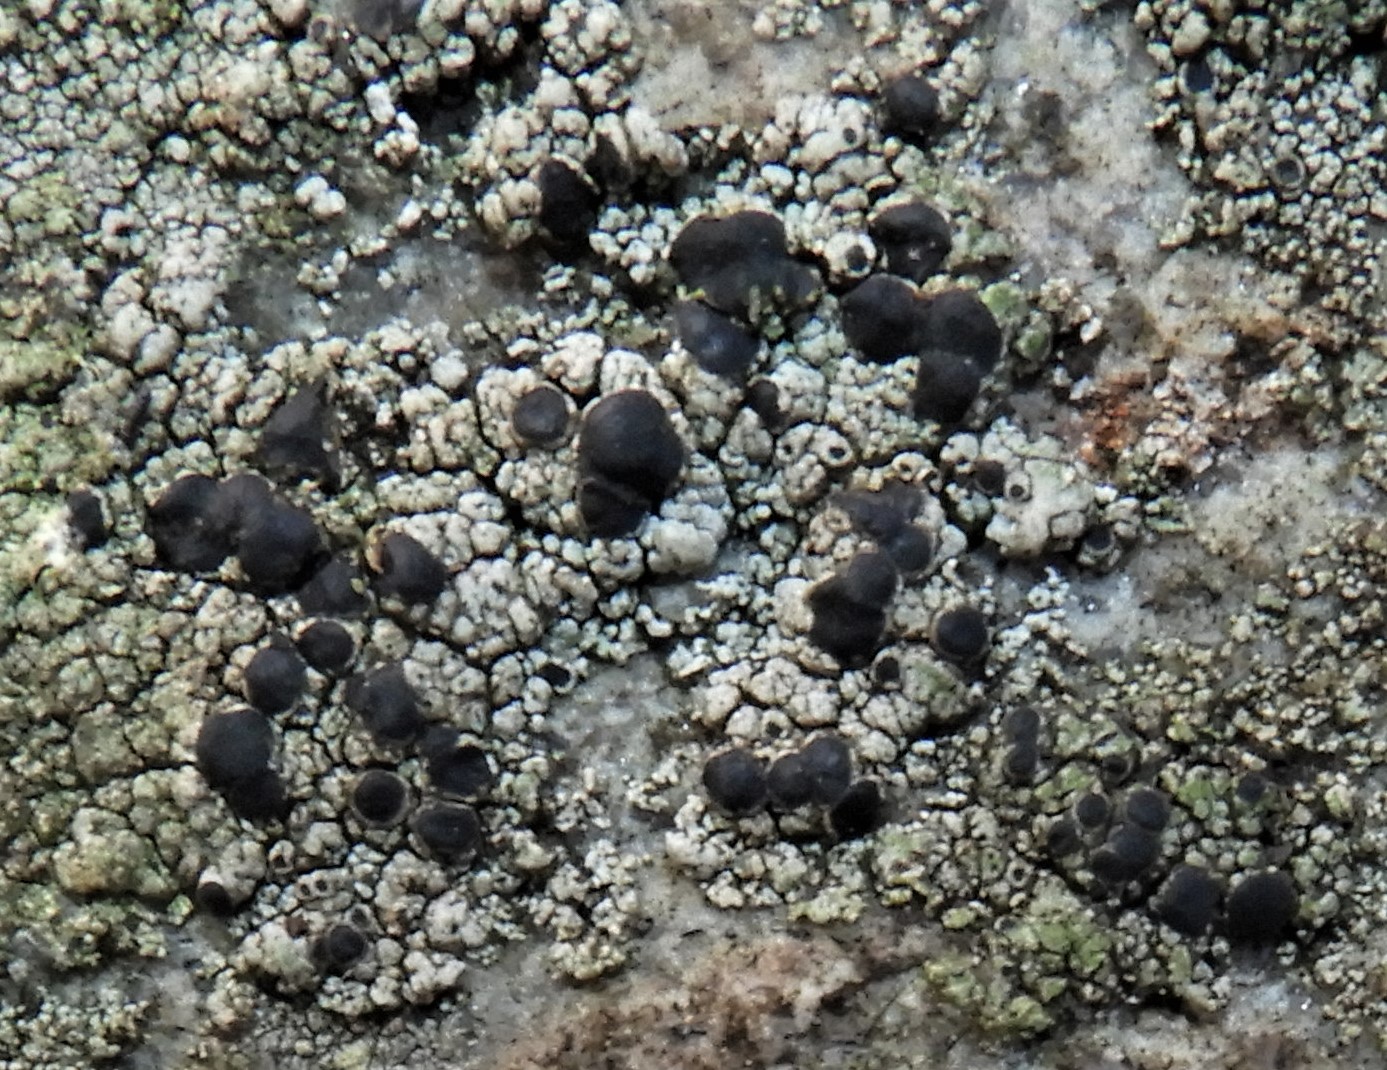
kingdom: Fungi
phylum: Ascomycota
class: Lecanoromycetes
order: Lecanorales
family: Tephromelataceae
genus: Tephromela
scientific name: Tephromela atra
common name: sortfrugtet kantskivelav
